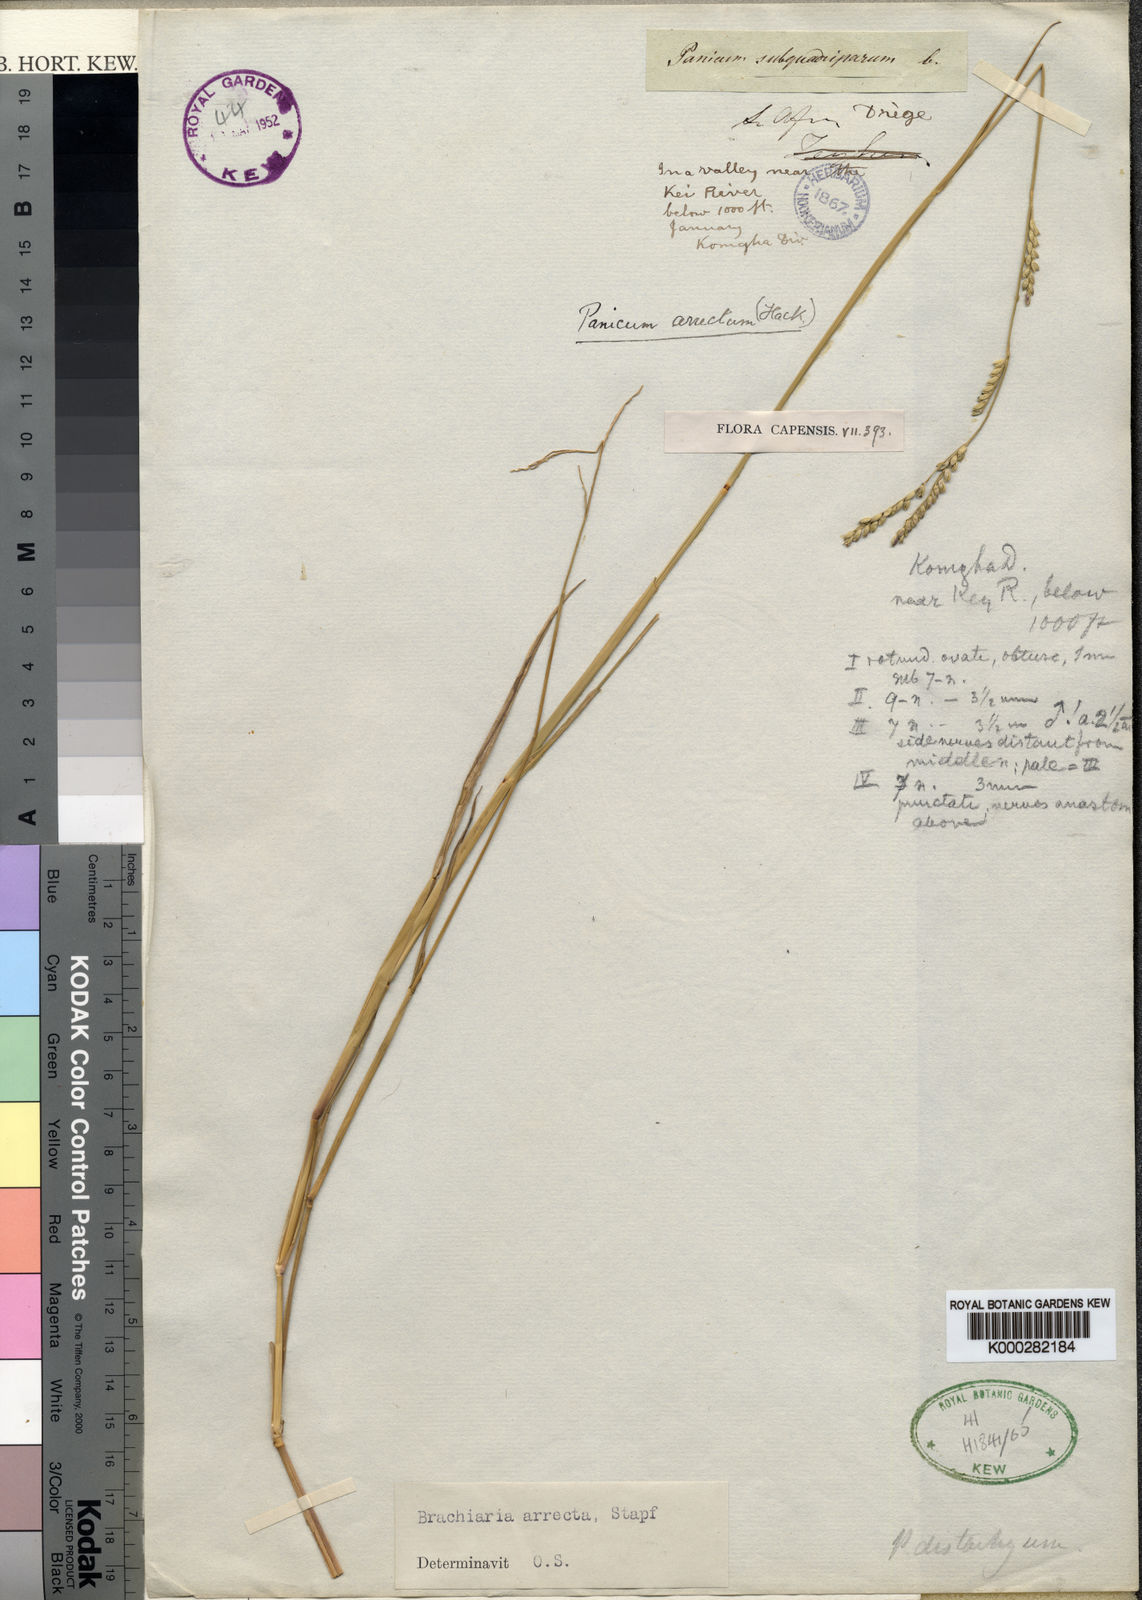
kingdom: Plantae
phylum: Tracheophyta
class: Liliopsida
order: Poales
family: Poaceae
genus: Urochloa
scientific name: Urochloa arrecta
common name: African signalgrass
